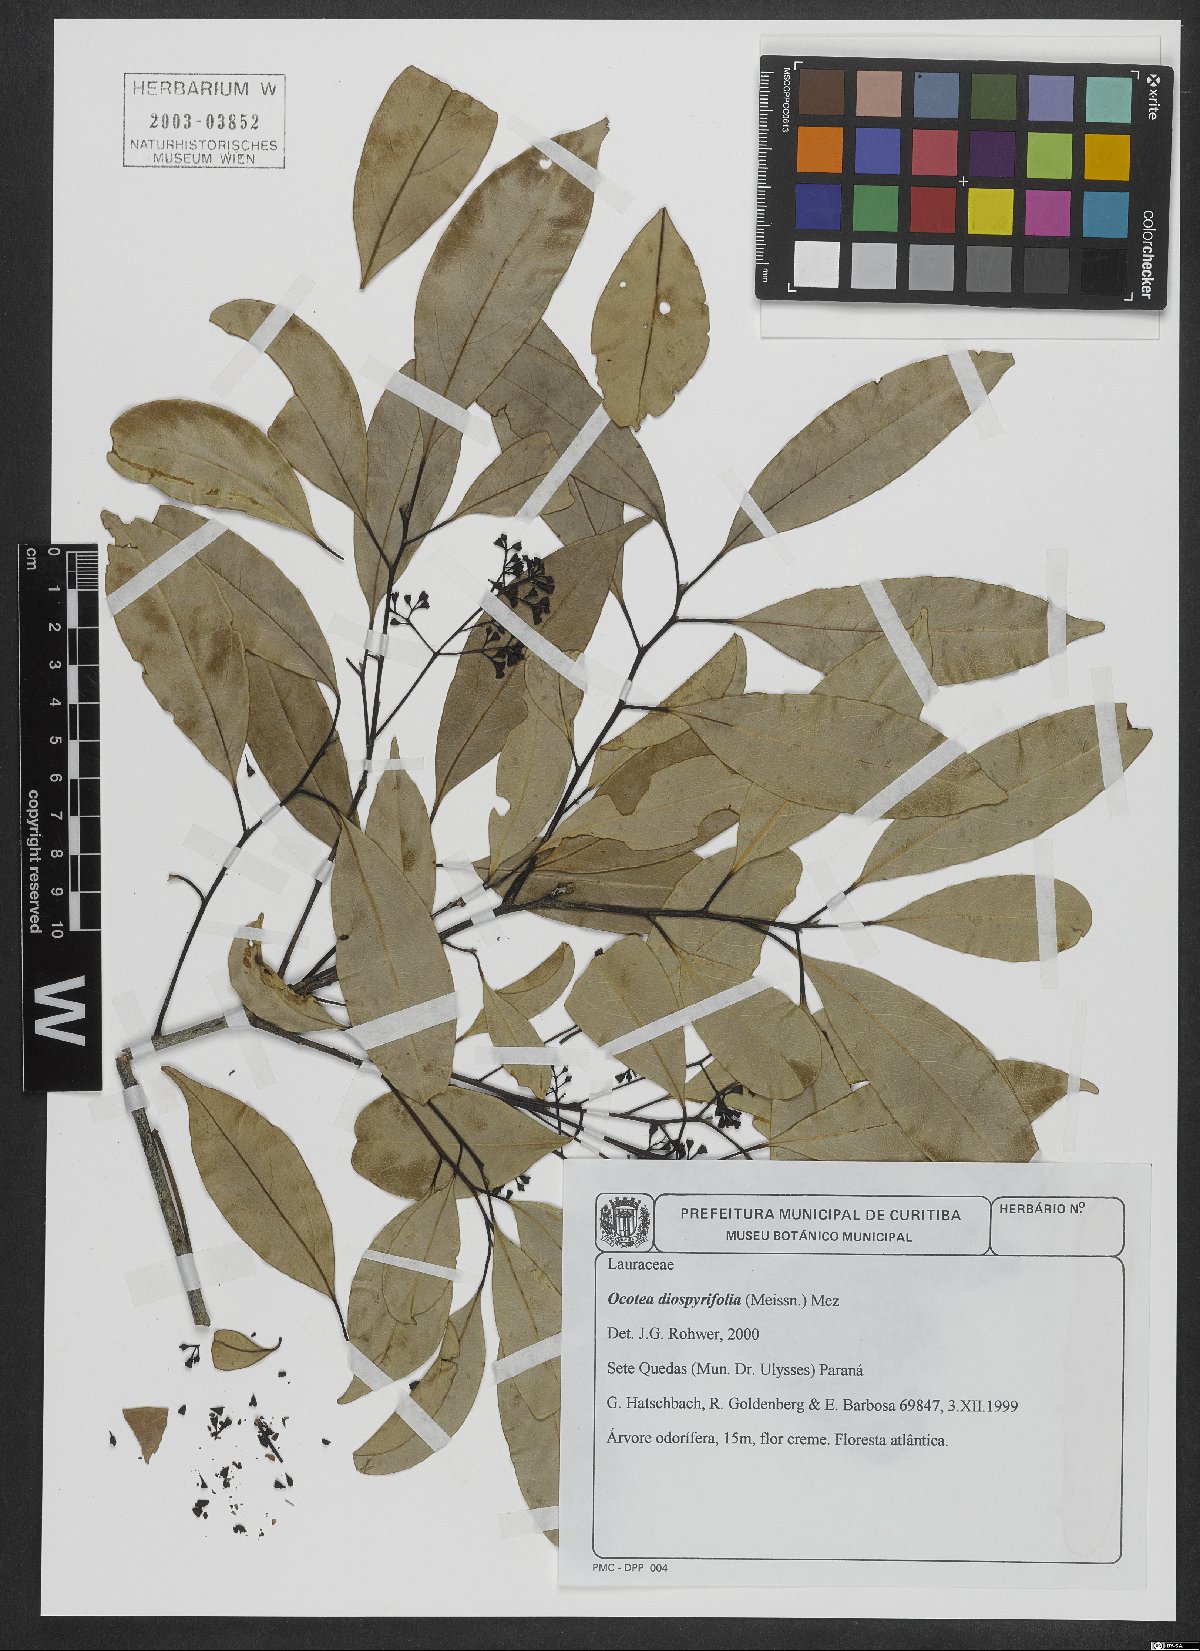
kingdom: Plantae
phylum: Tracheophyta
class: Magnoliopsida
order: Laurales
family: Lauraceae
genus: Ocotea
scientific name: Ocotea diospyrifolia
